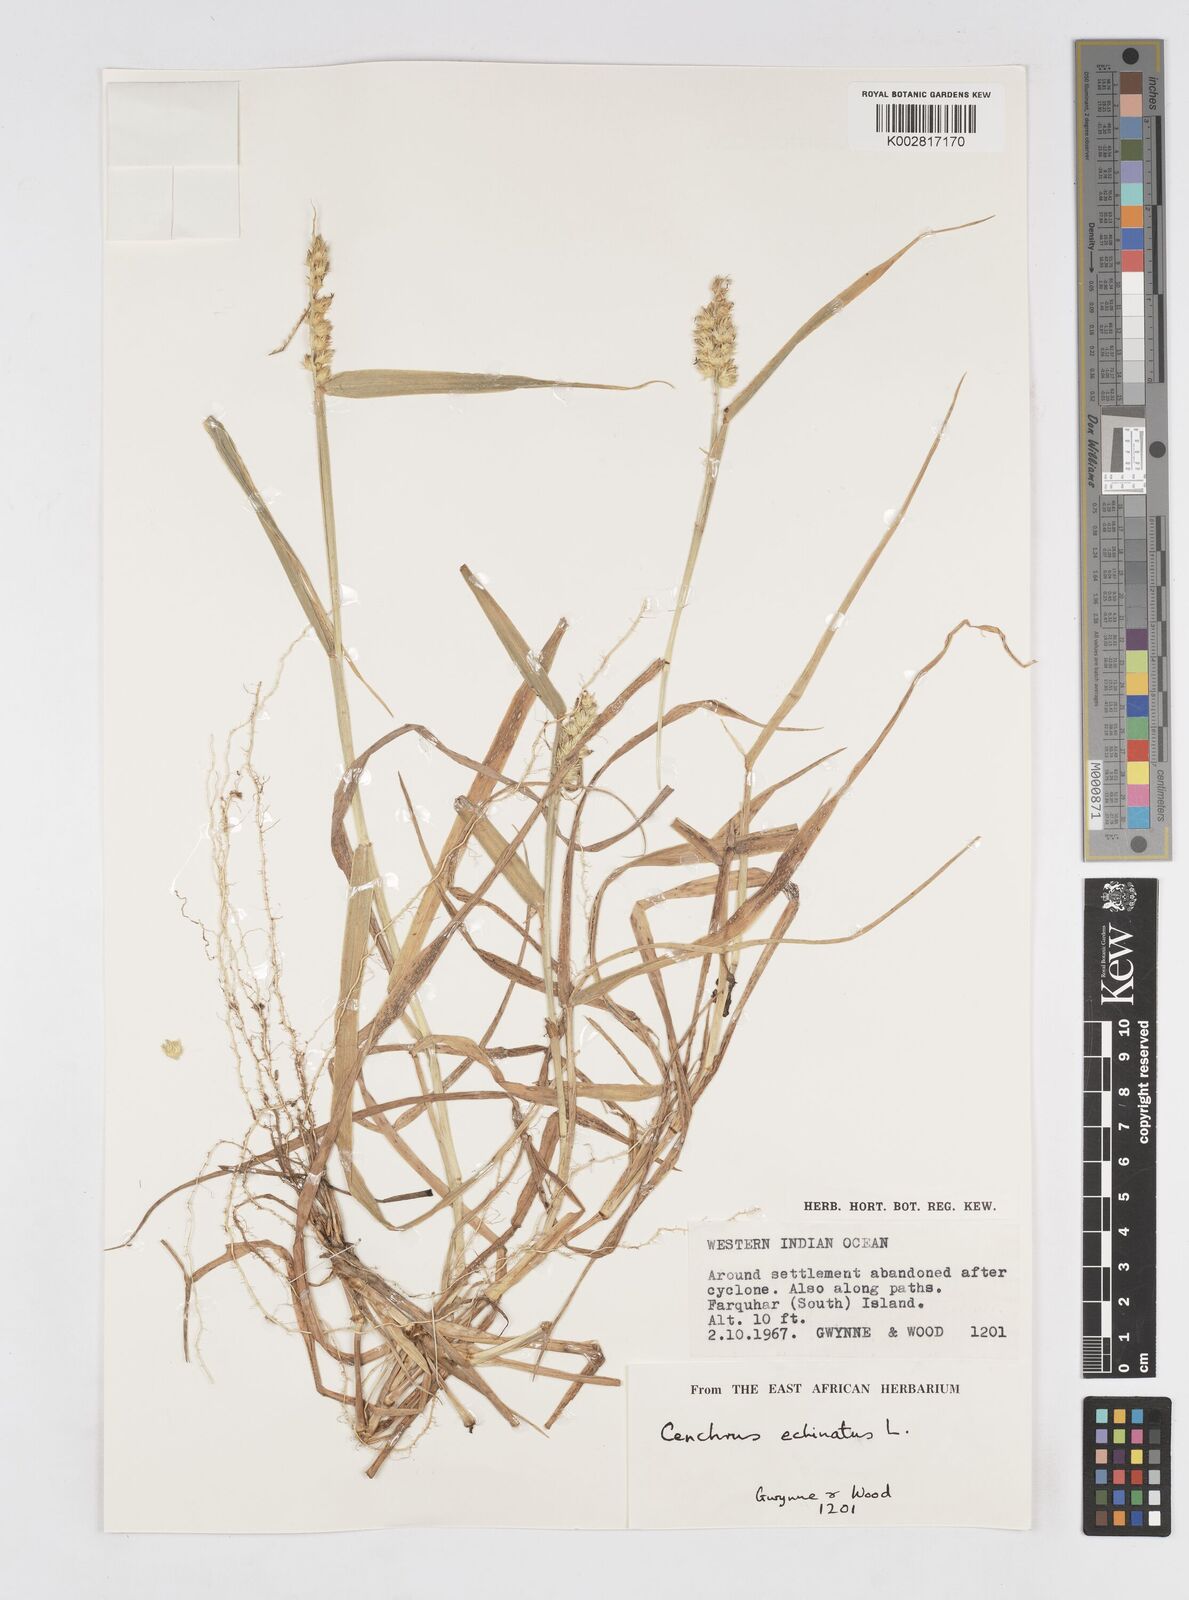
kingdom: Plantae
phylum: Tracheophyta
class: Liliopsida
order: Poales
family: Poaceae
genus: Cenchrus
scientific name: Cenchrus echinatus
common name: Southern sandbur
